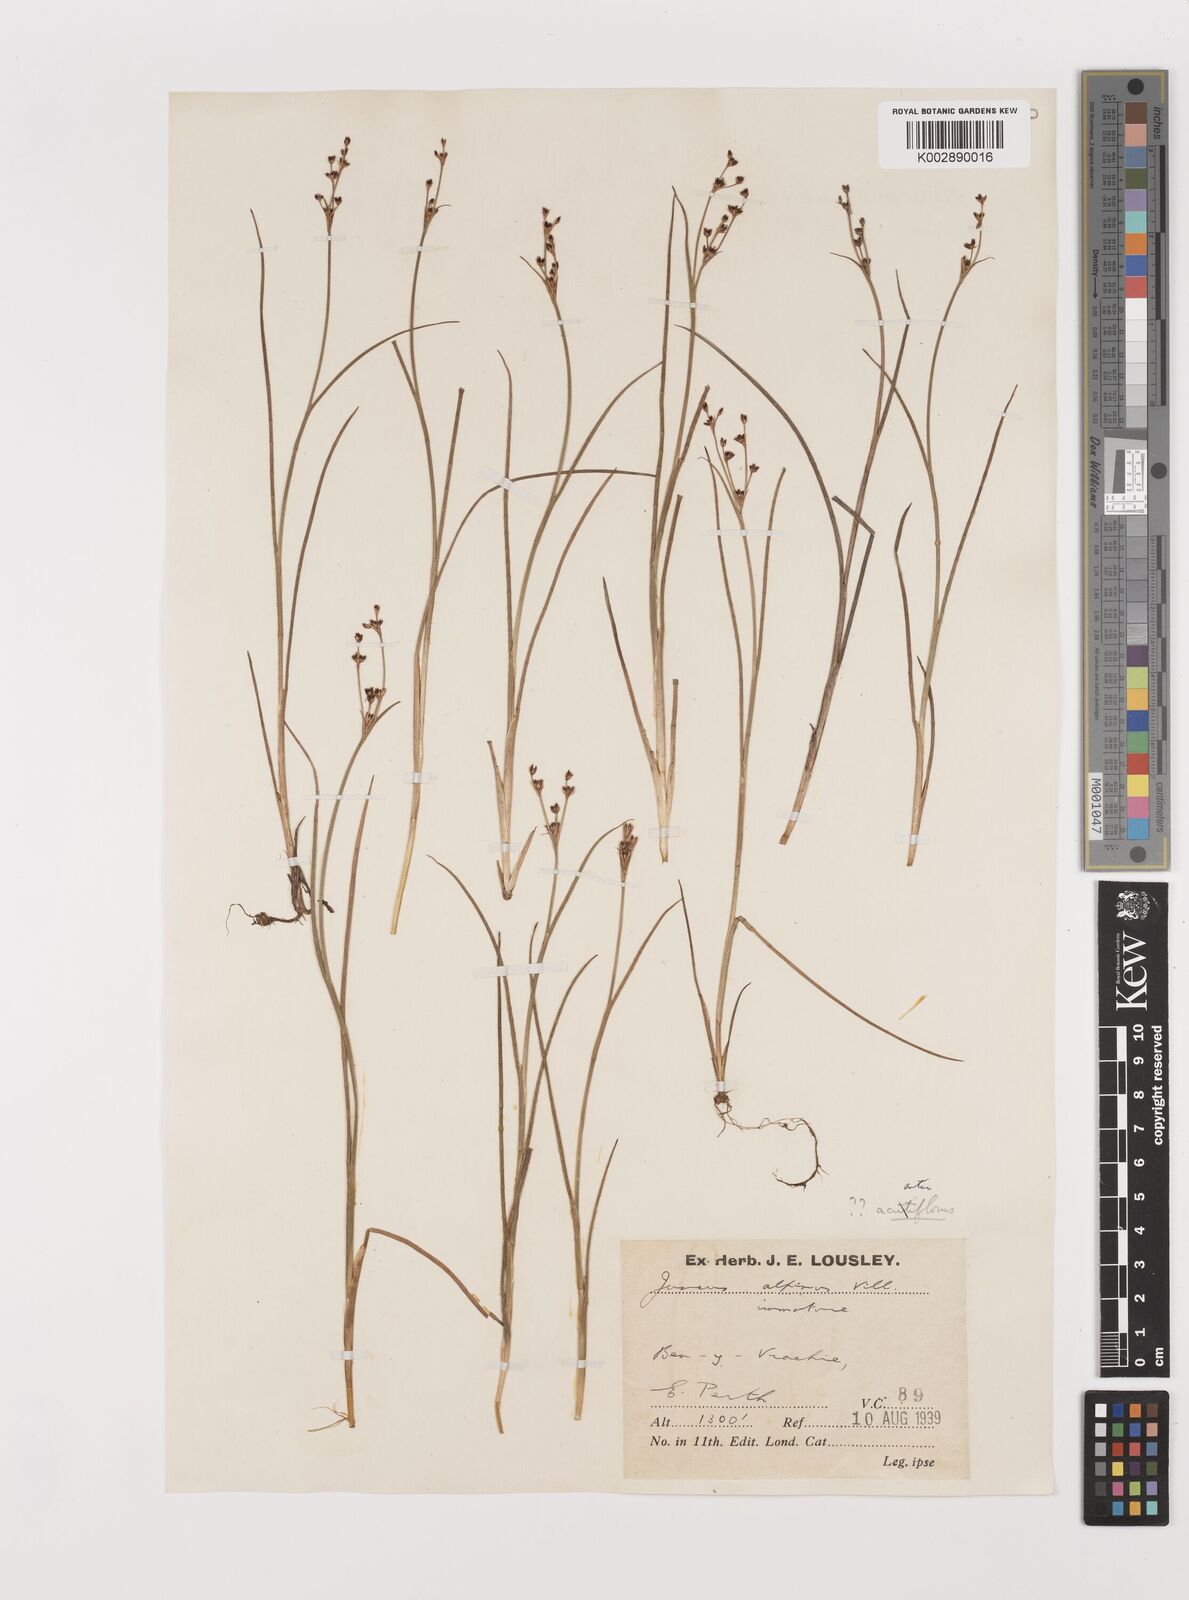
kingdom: Plantae
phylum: Tracheophyta
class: Liliopsida
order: Poales
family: Juncaceae
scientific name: Juncaceae
